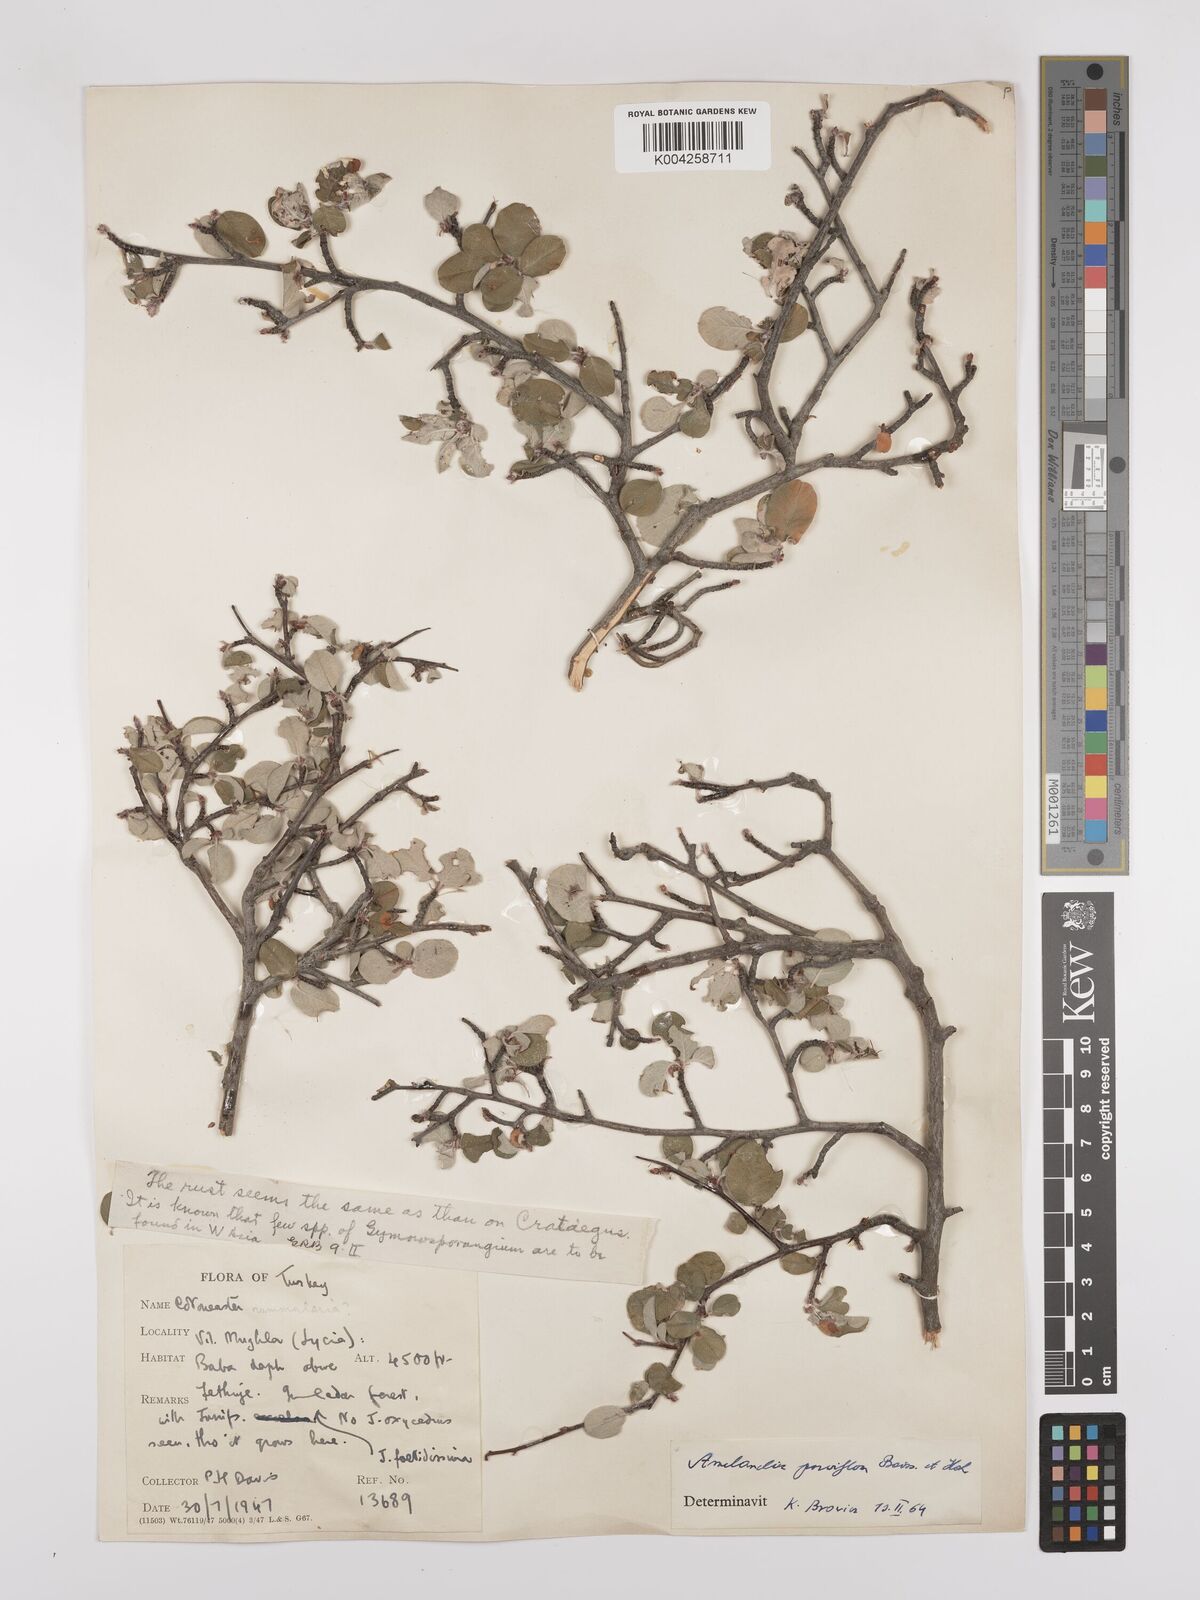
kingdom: Plantae
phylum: Tracheophyta
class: Magnoliopsida
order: Rosales
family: Rosaceae
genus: Amelanchier
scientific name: Amelanchier parviflora
